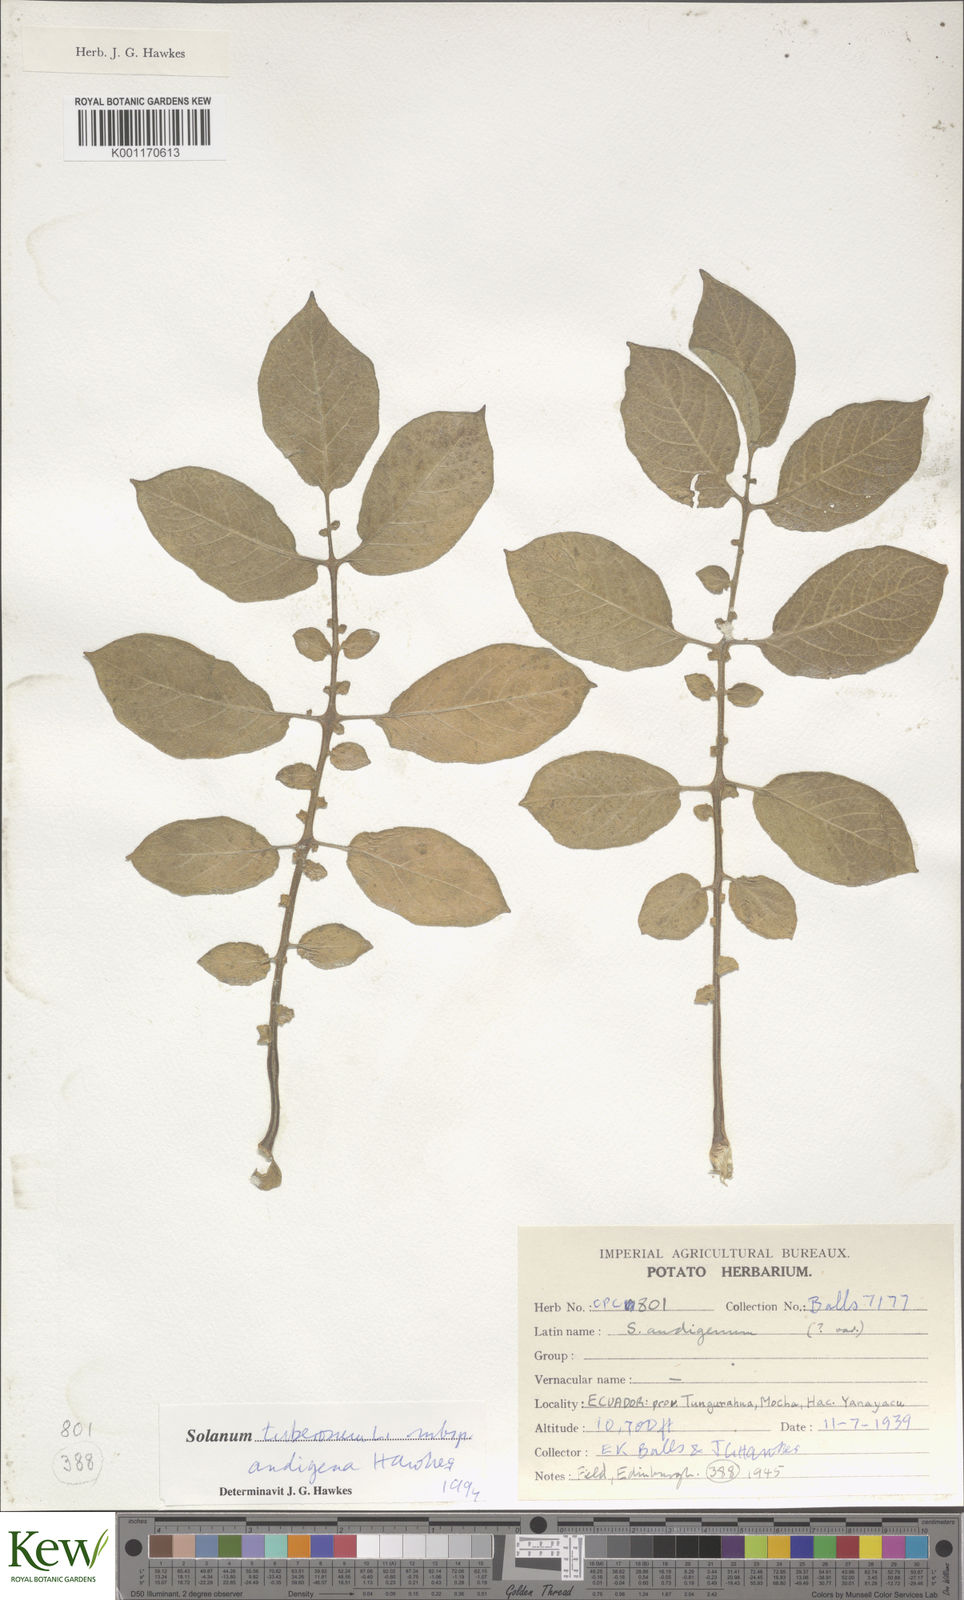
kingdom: Plantae
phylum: Tracheophyta
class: Magnoliopsida
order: Solanales
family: Solanaceae
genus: Solanum
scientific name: Solanum tuberosum
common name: Potato
